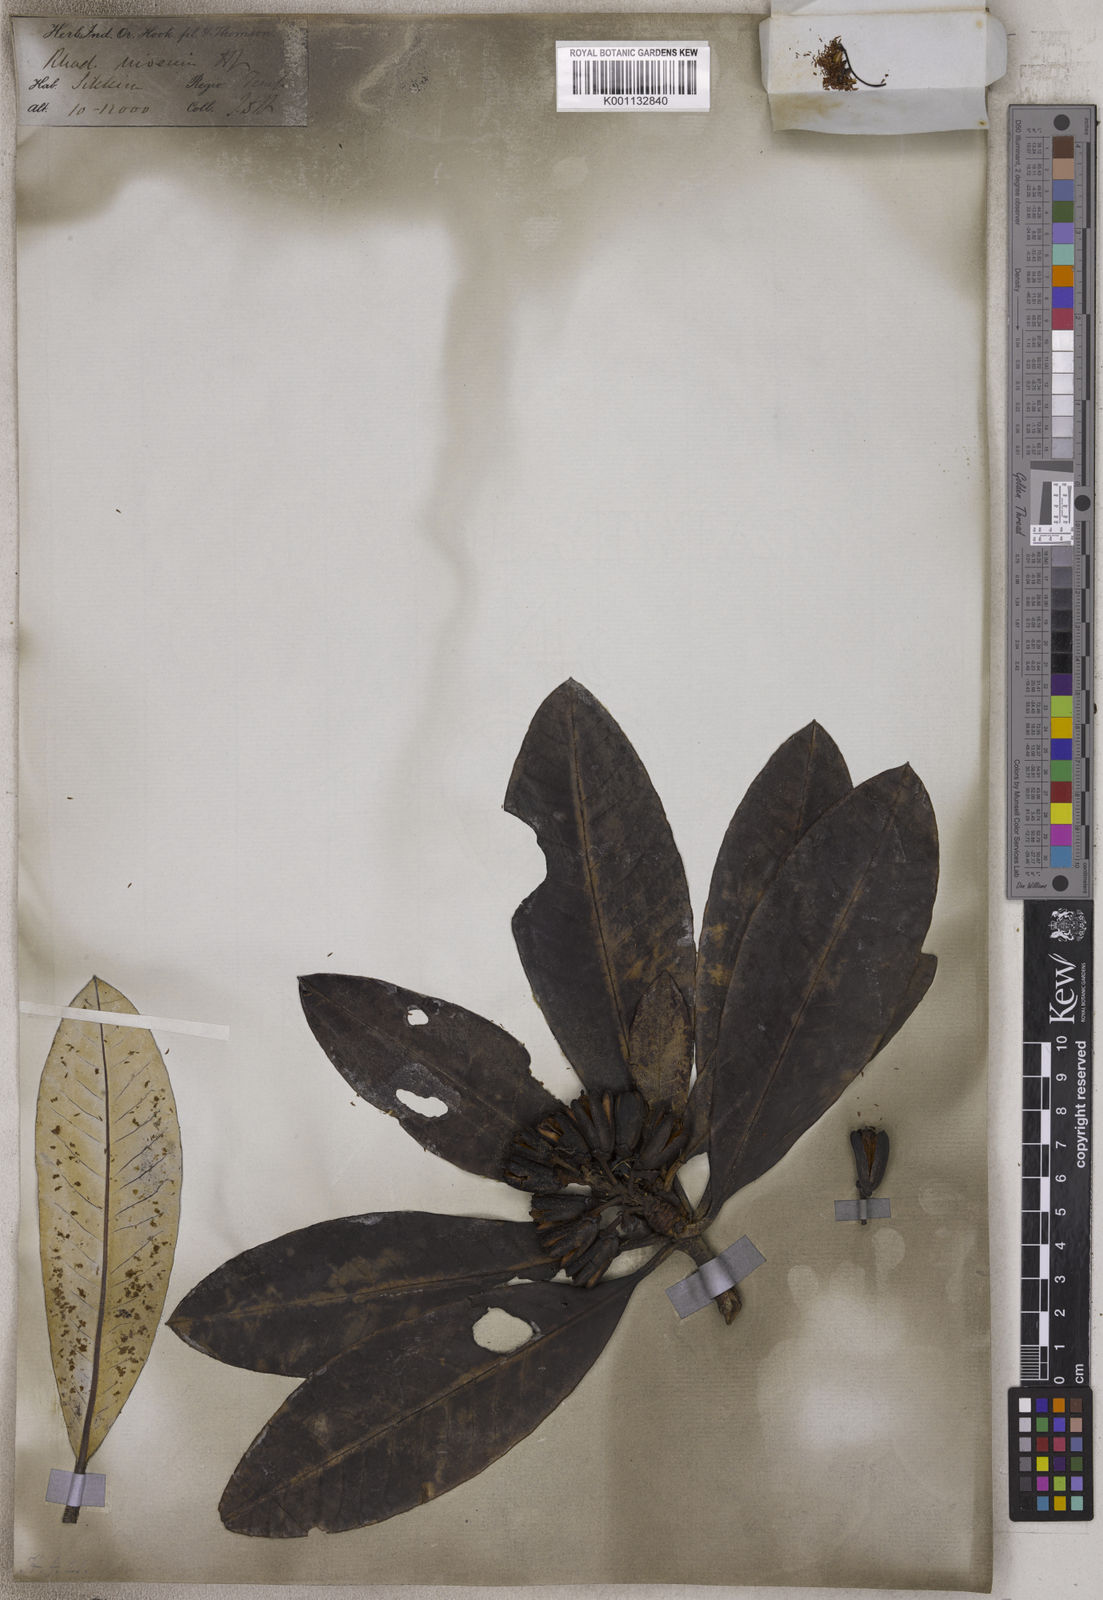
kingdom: Plantae
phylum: Tracheophyta
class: Magnoliopsida
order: Ericales
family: Ericaceae
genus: Rhododendron
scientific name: Rhododendron niveum
